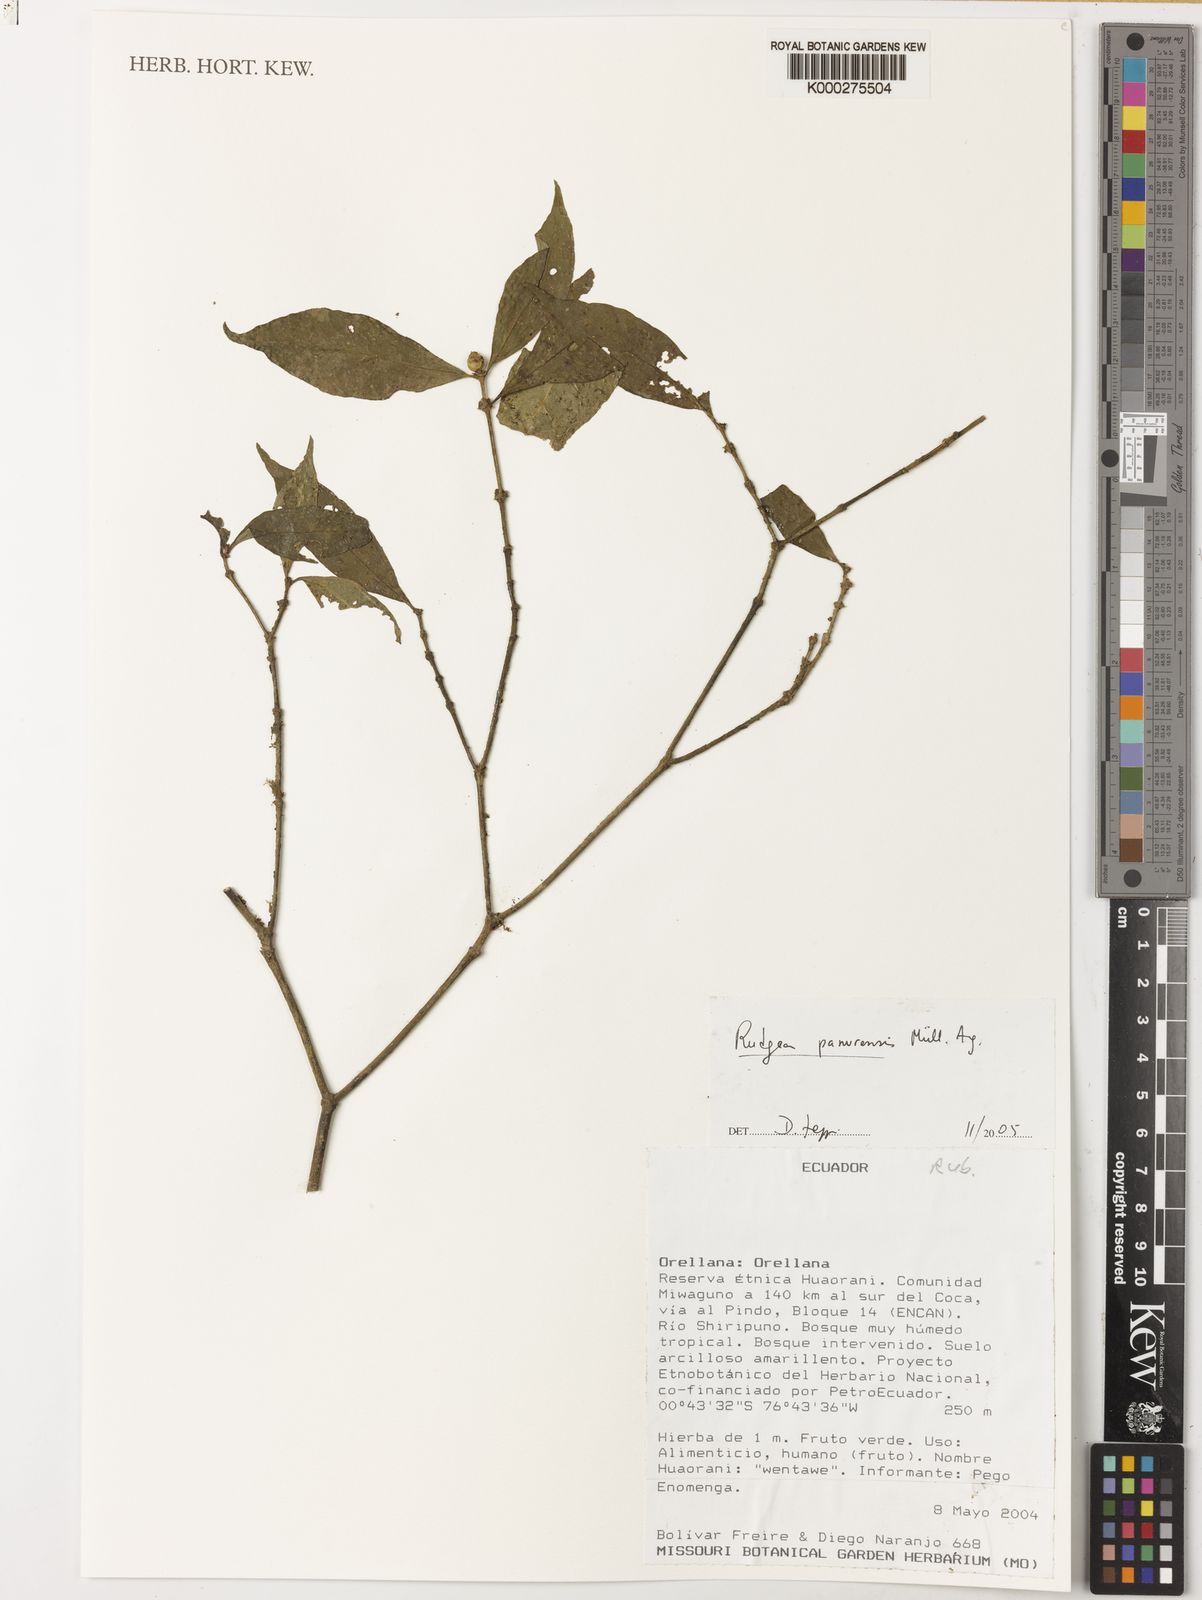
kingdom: Plantae
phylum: Tracheophyta
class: Magnoliopsida
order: Gentianales
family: Rubiaceae
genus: Rudgea
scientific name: Rudgea
